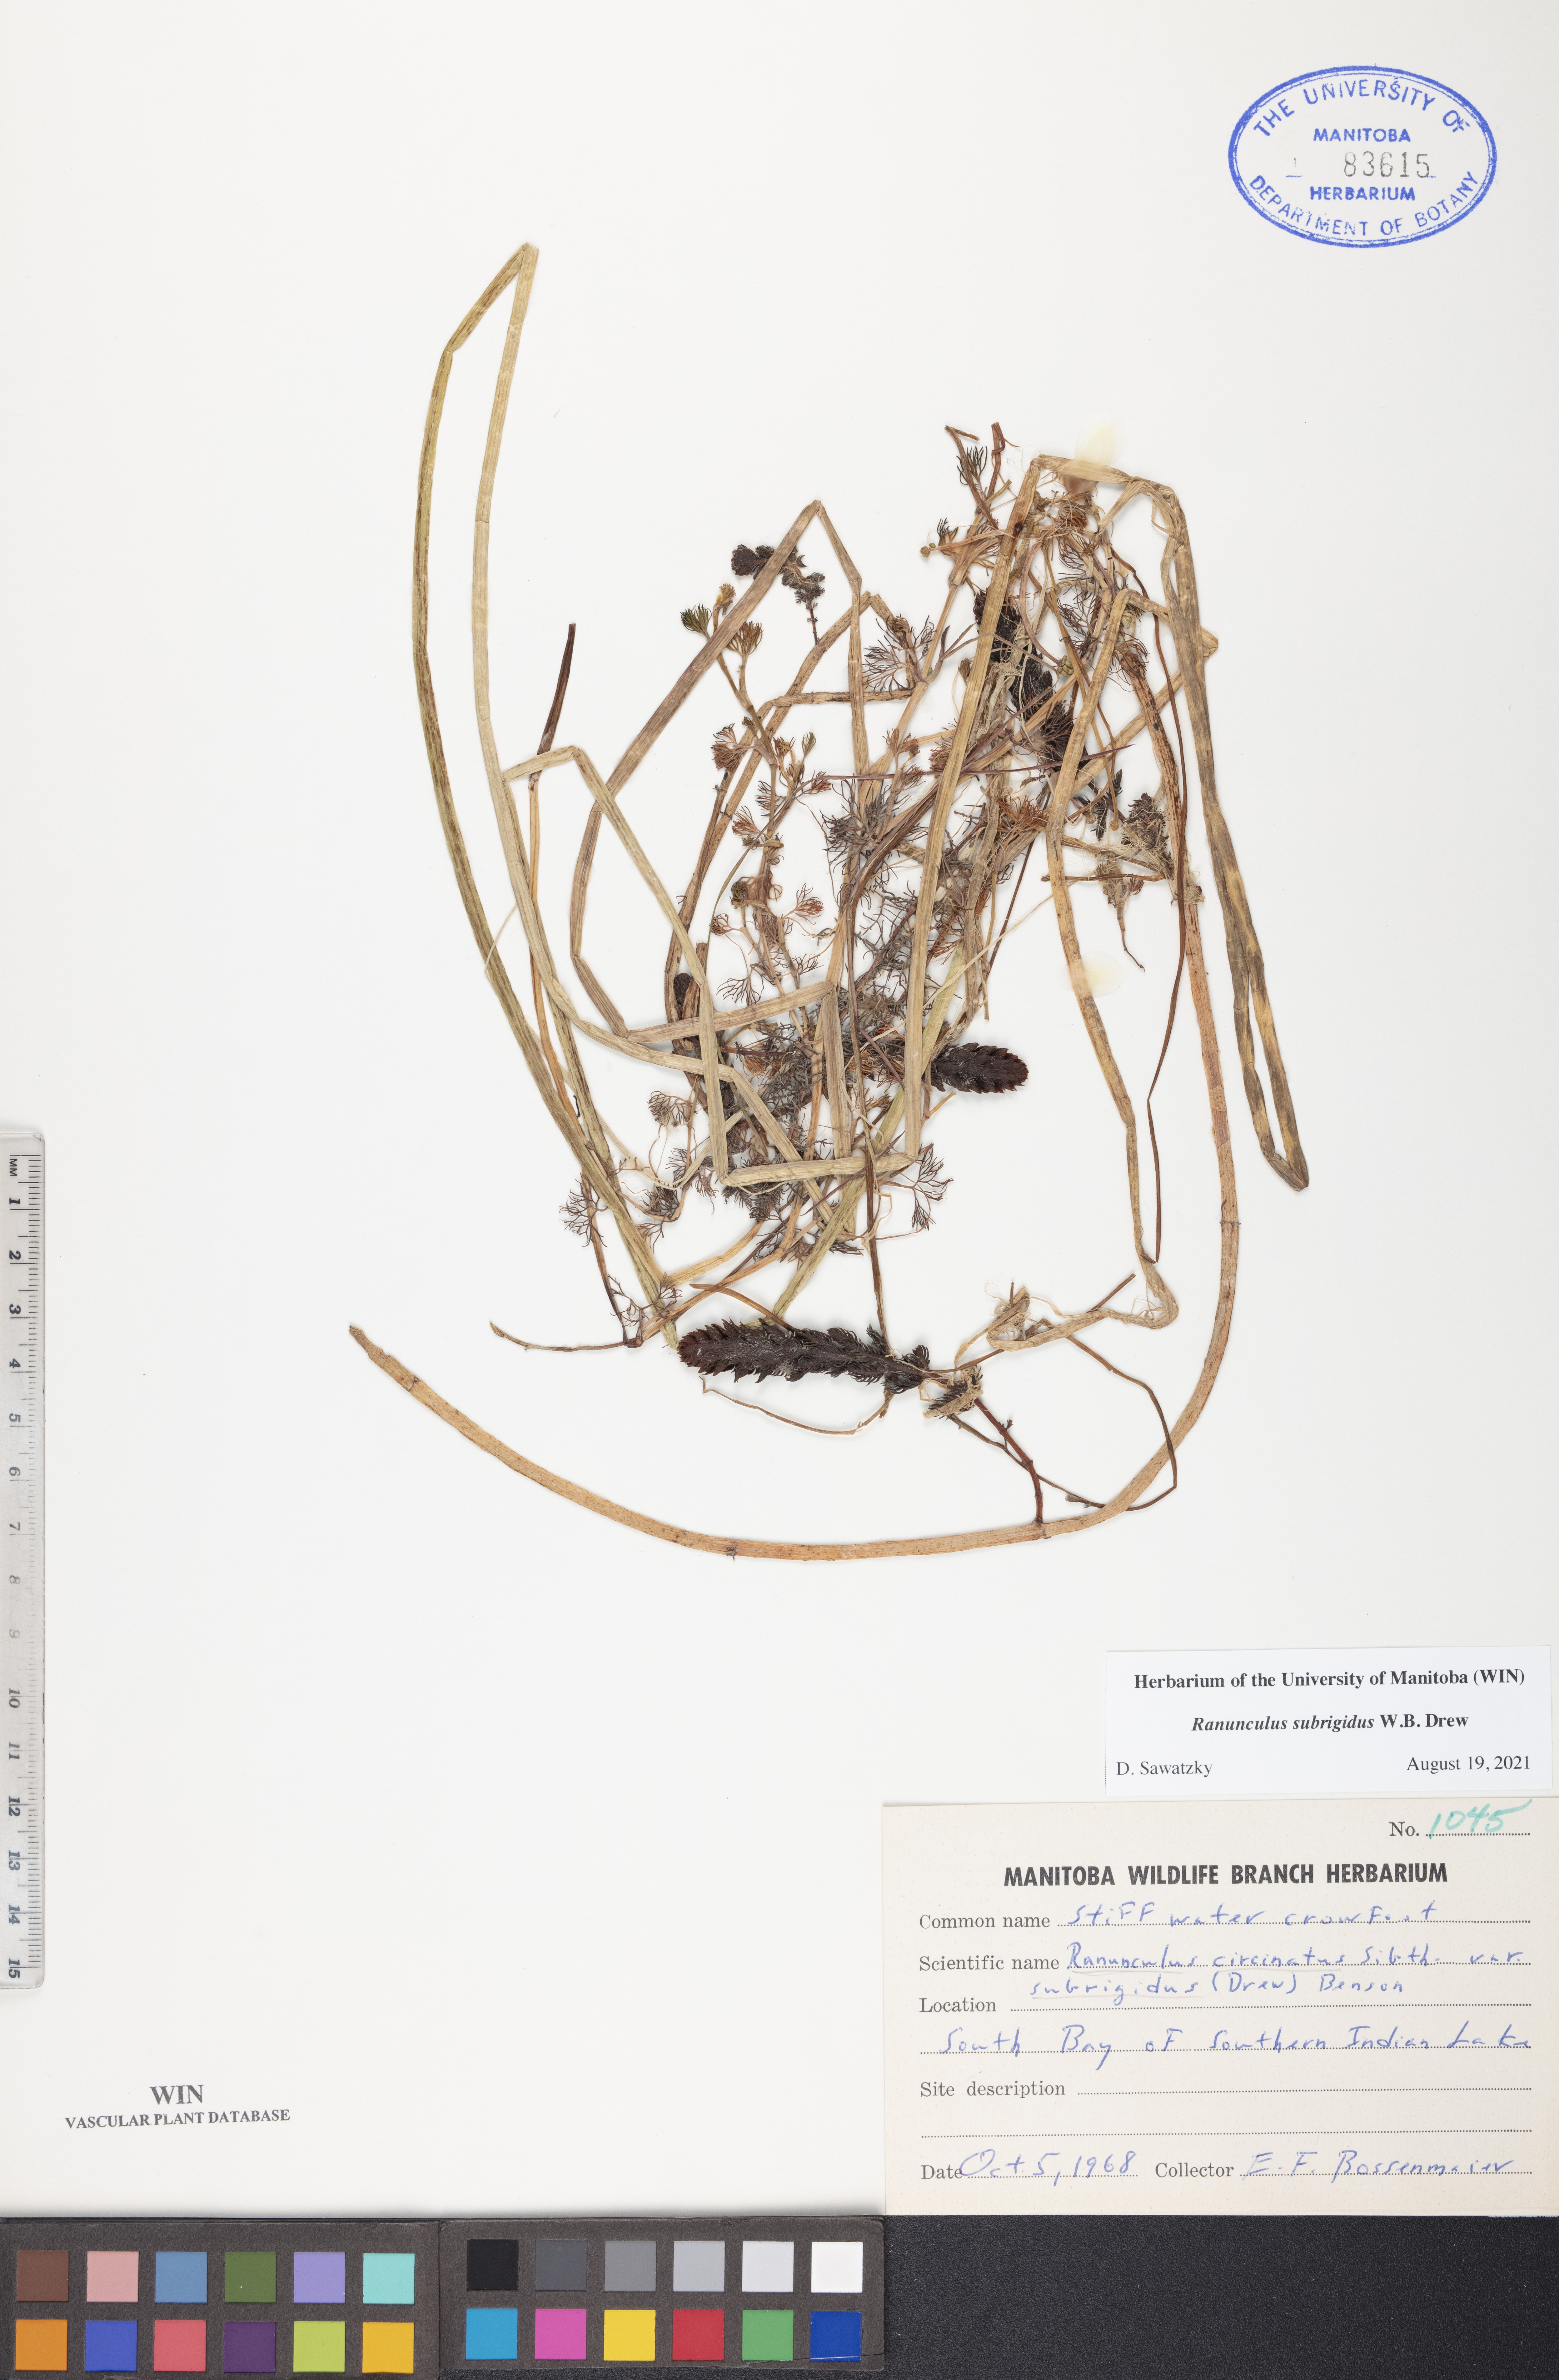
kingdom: Plantae
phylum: Tracheophyta
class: Magnoliopsida
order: Ranunculales
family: Ranunculaceae
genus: Ranunculus
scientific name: Ranunculus longirostris
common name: Curly white water-crowfoot
